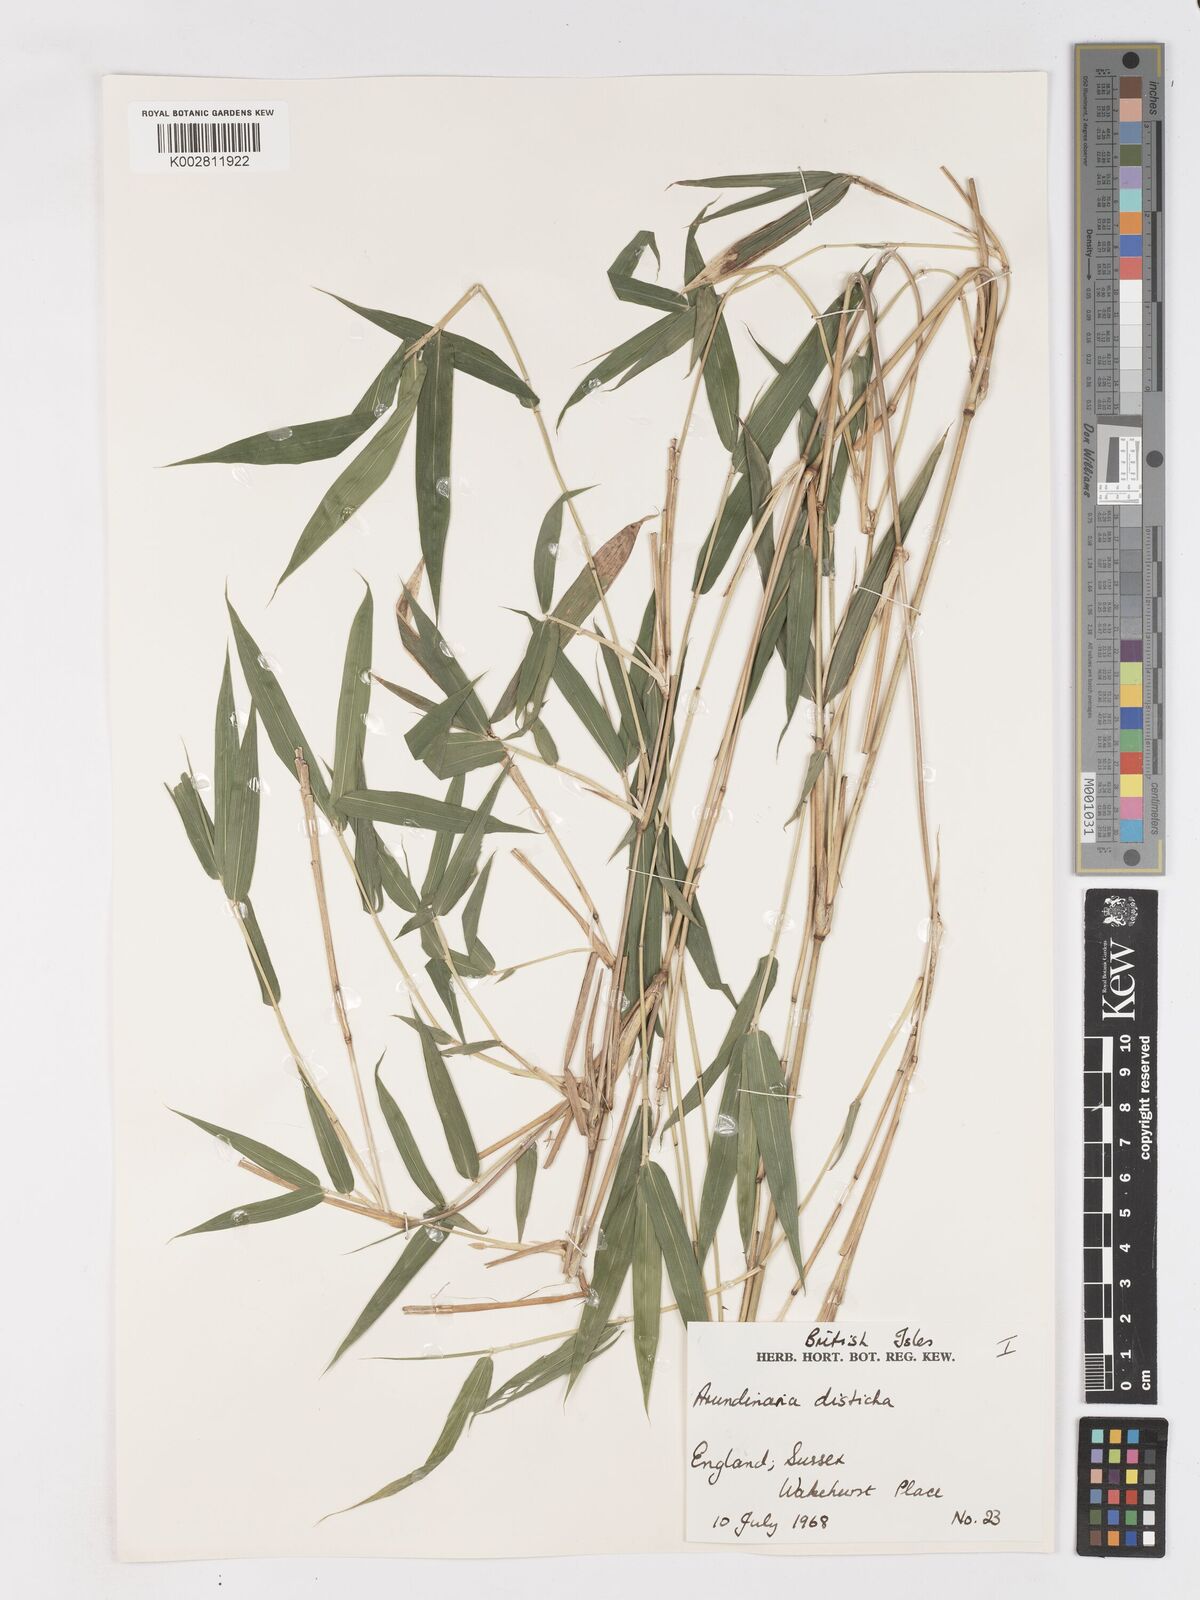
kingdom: Plantae
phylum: Tracheophyta
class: Liliopsida
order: Poales
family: Poaceae
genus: Pleioblastus
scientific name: Pleioblastus distichus
